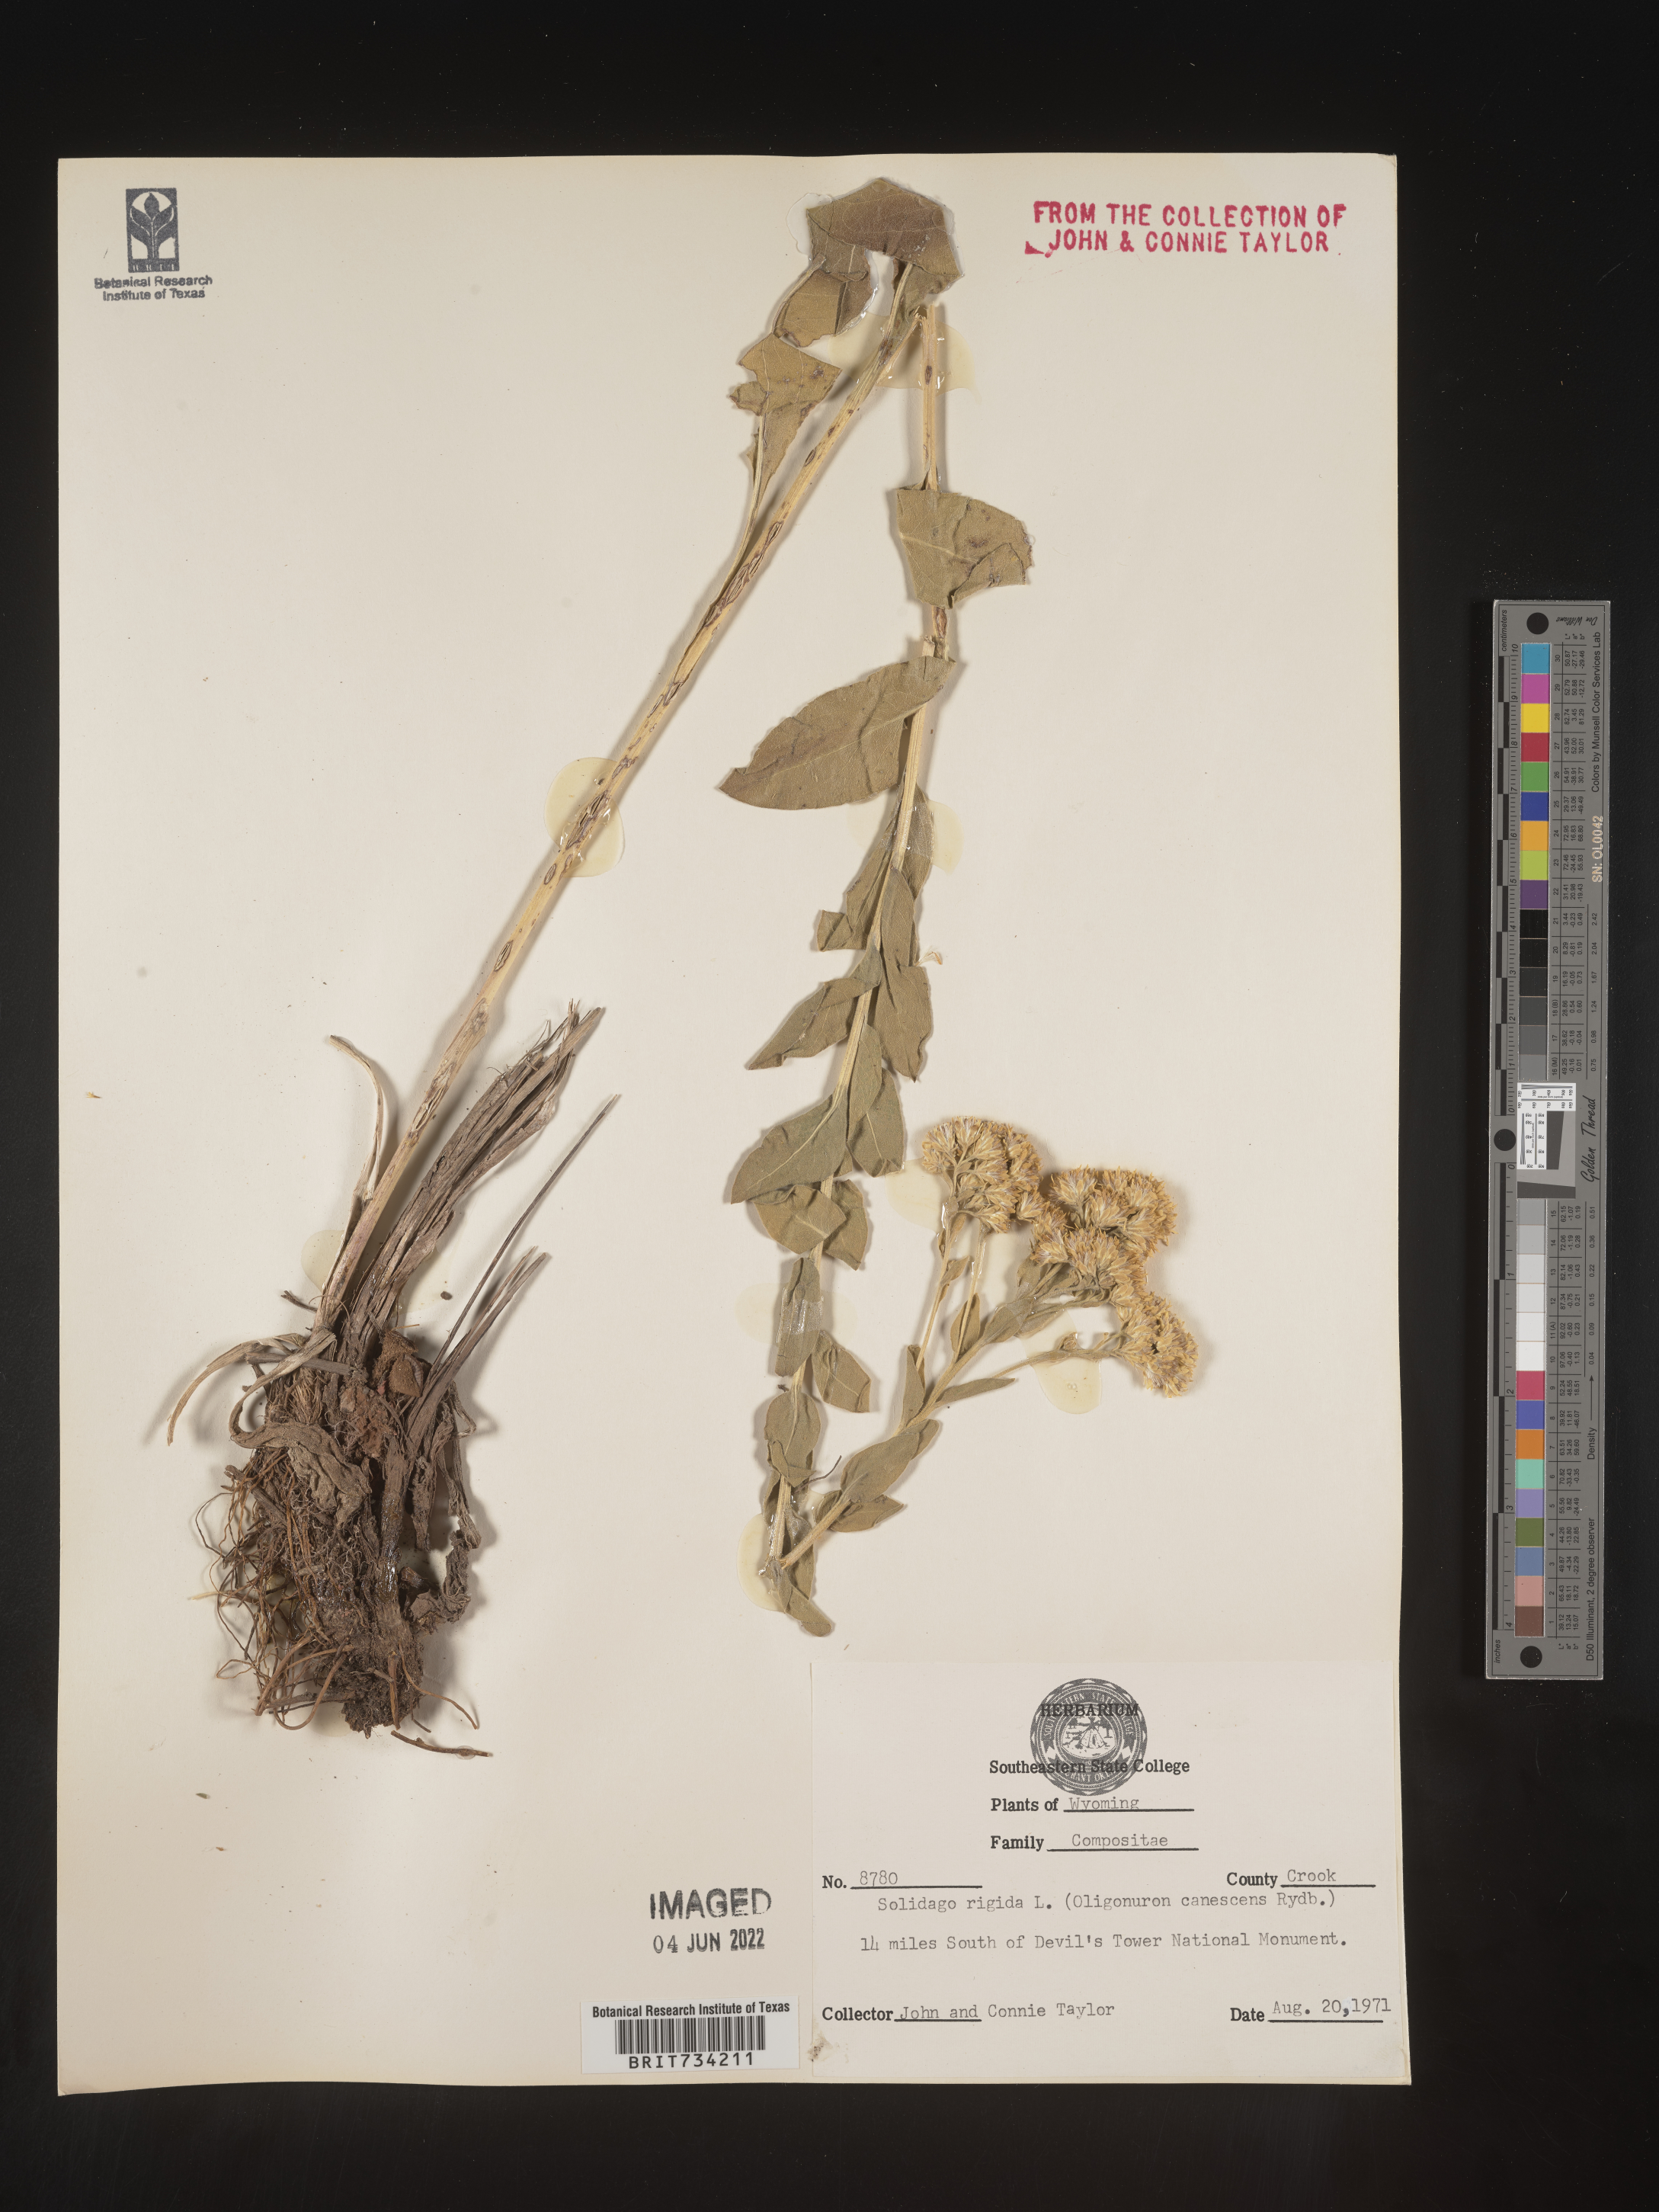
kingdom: Plantae
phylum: Tracheophyta
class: Magnoliopsida
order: Asterales
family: Asteraceae
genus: Solidago
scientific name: Solidago rigida
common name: Rigid goldenrod
